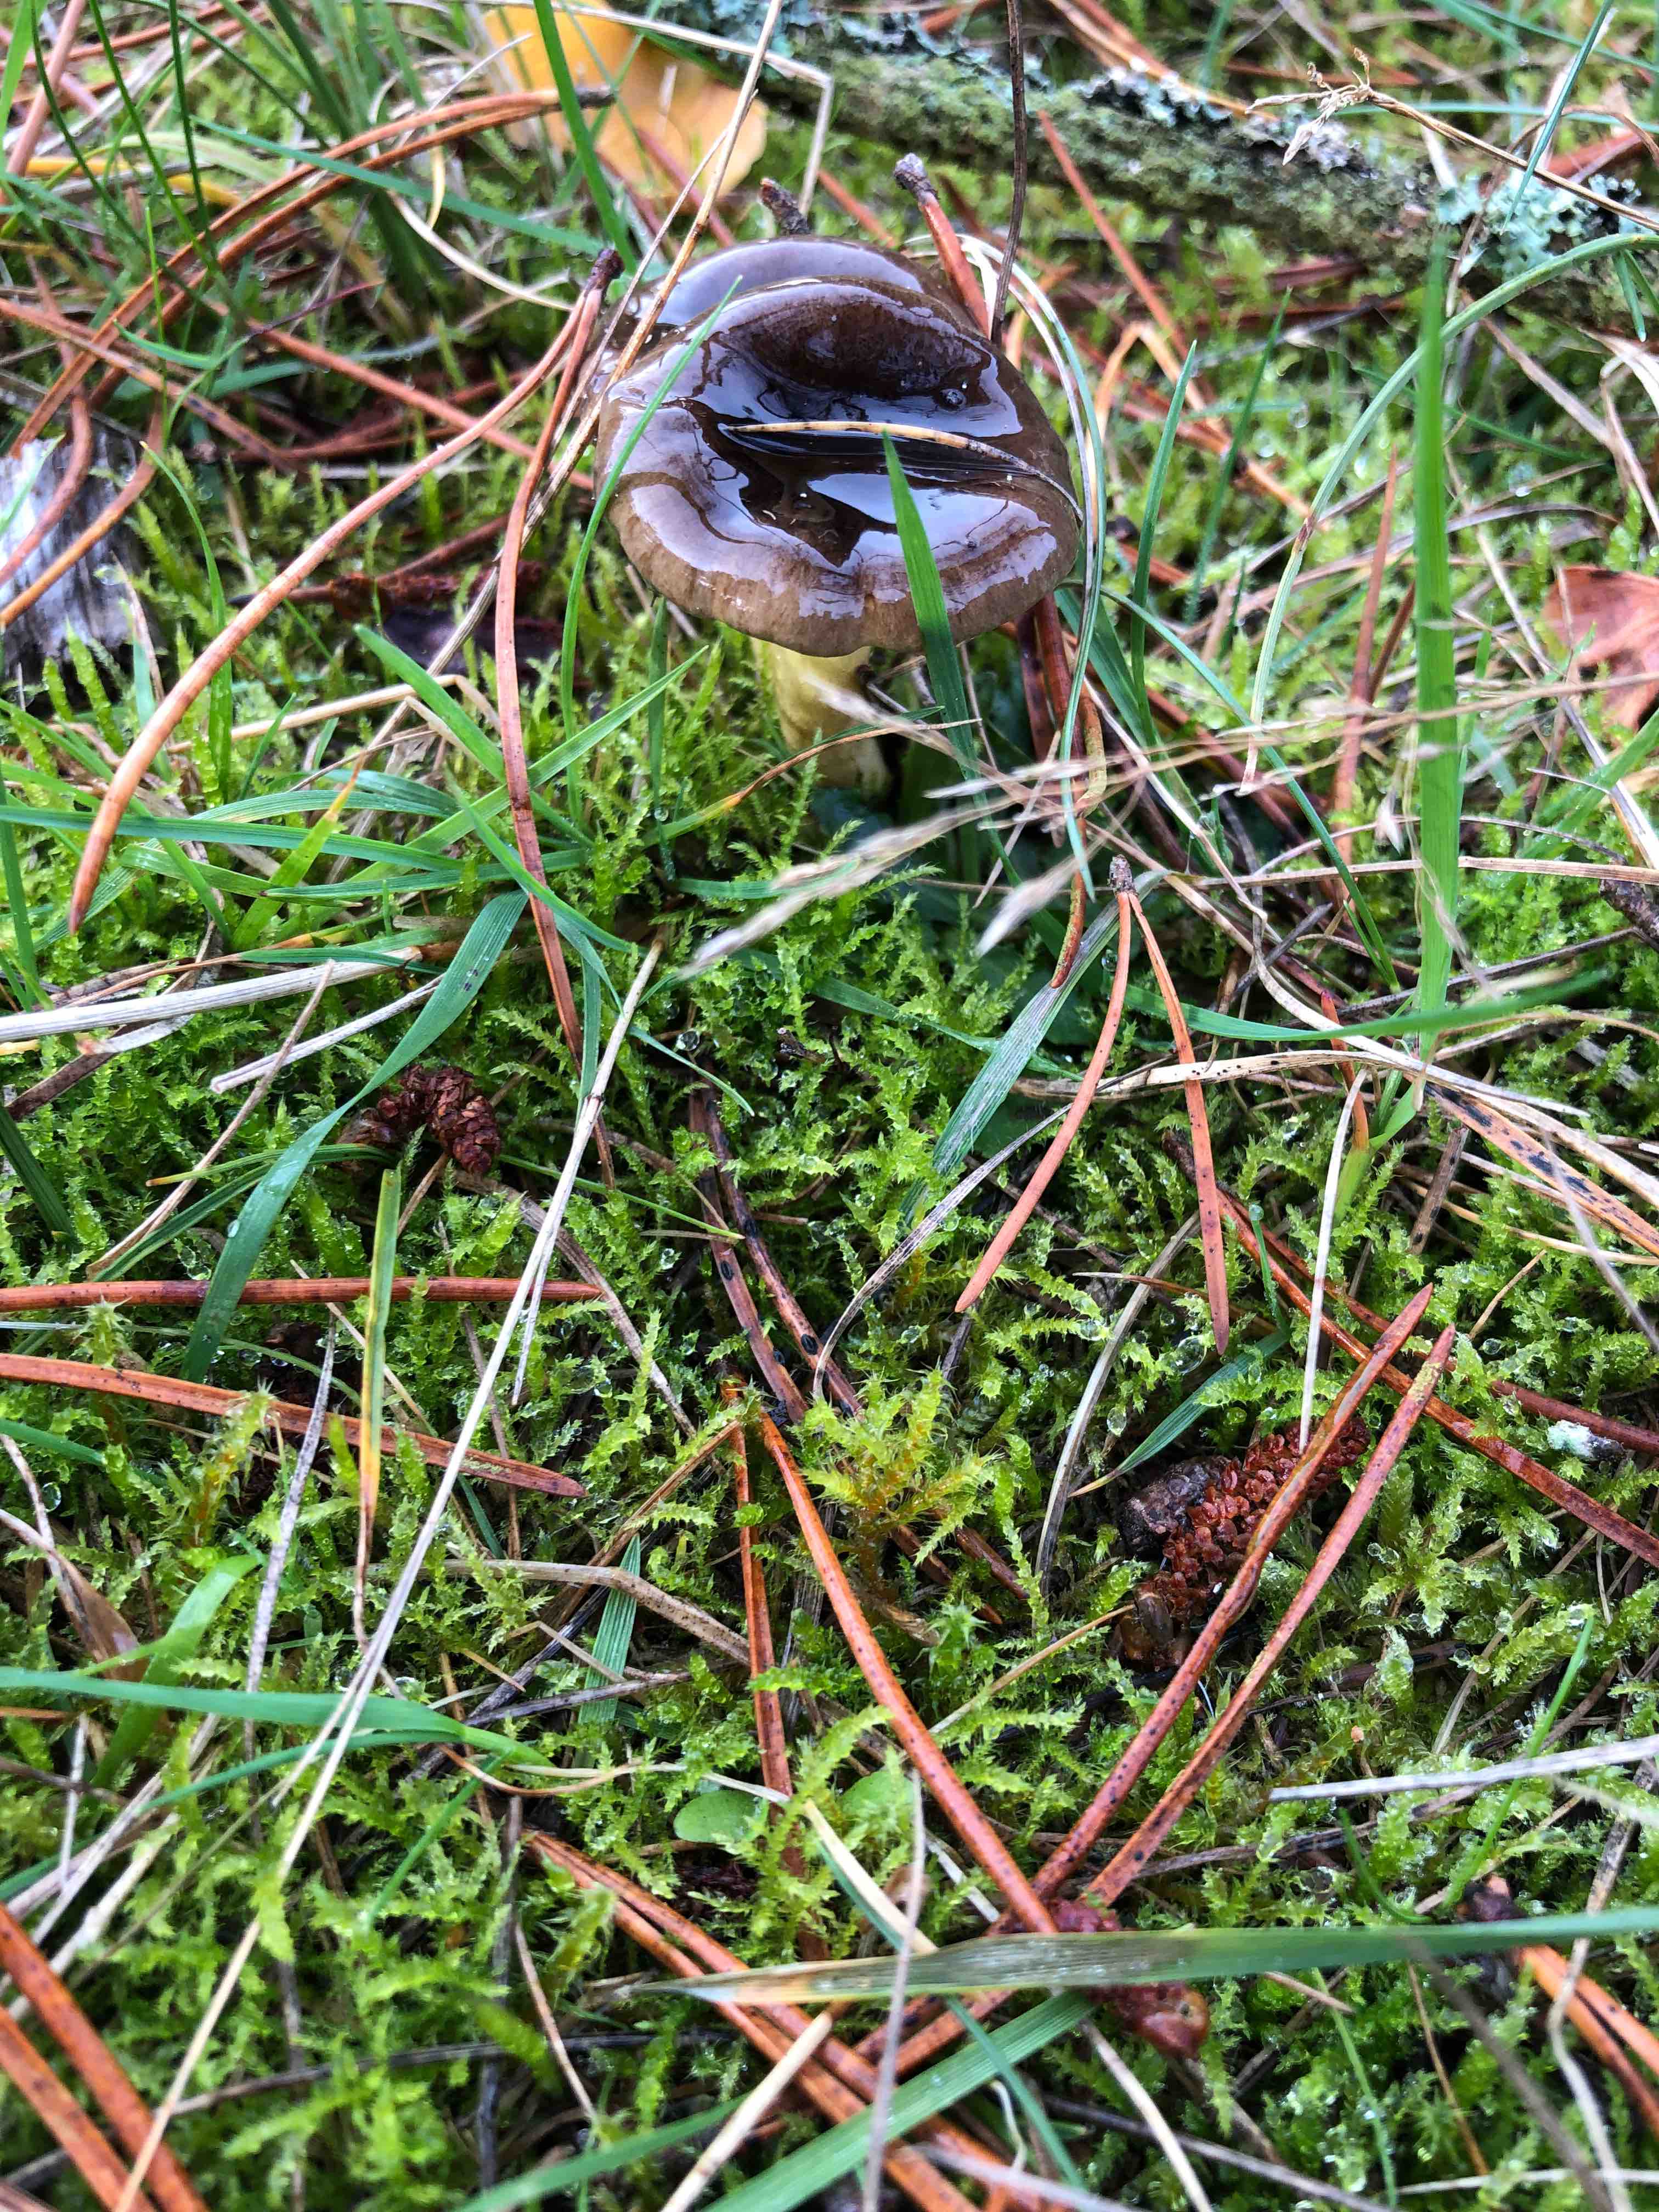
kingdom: Fungi
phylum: Basidiomycota
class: Agaricomycetes
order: Agaricales
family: Hygrophoraceae
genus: Hygrophorus
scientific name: Hygrophorus hypothejus
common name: frost-sneglehat
